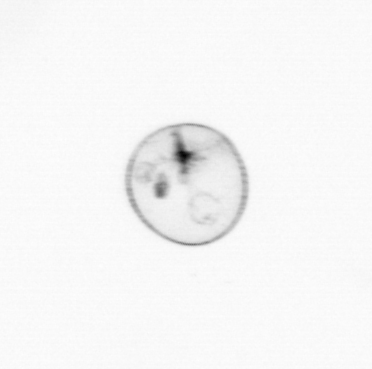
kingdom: Chromista
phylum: Myzozoa
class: Dinophyceae
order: Noctilucales
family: Noctilucaceae
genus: Noctiluca
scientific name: Noctiluca scintillans
